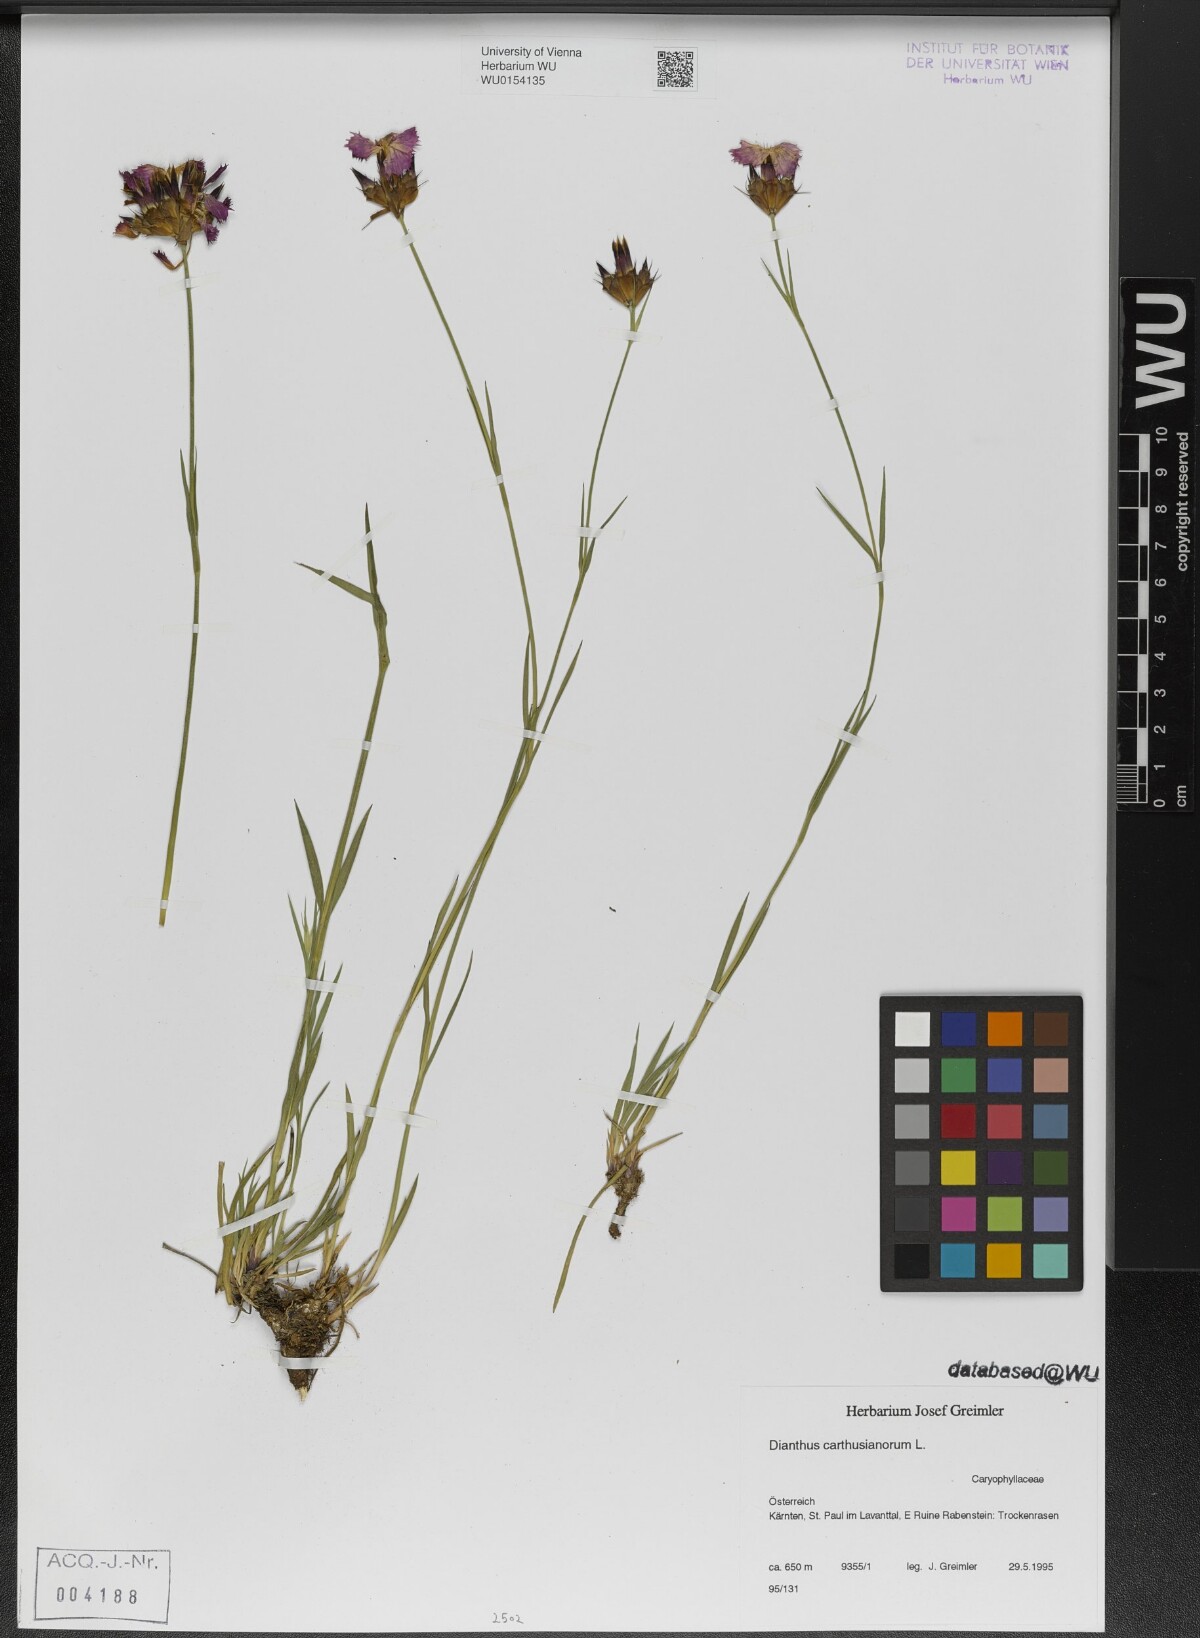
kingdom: Plantae
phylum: Tracheophyta
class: Magnoliopsida
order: Caryophyllales
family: Caryophyllaceae
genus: Dianthus
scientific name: Dianthus carthusianorum
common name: Carthusian pink
